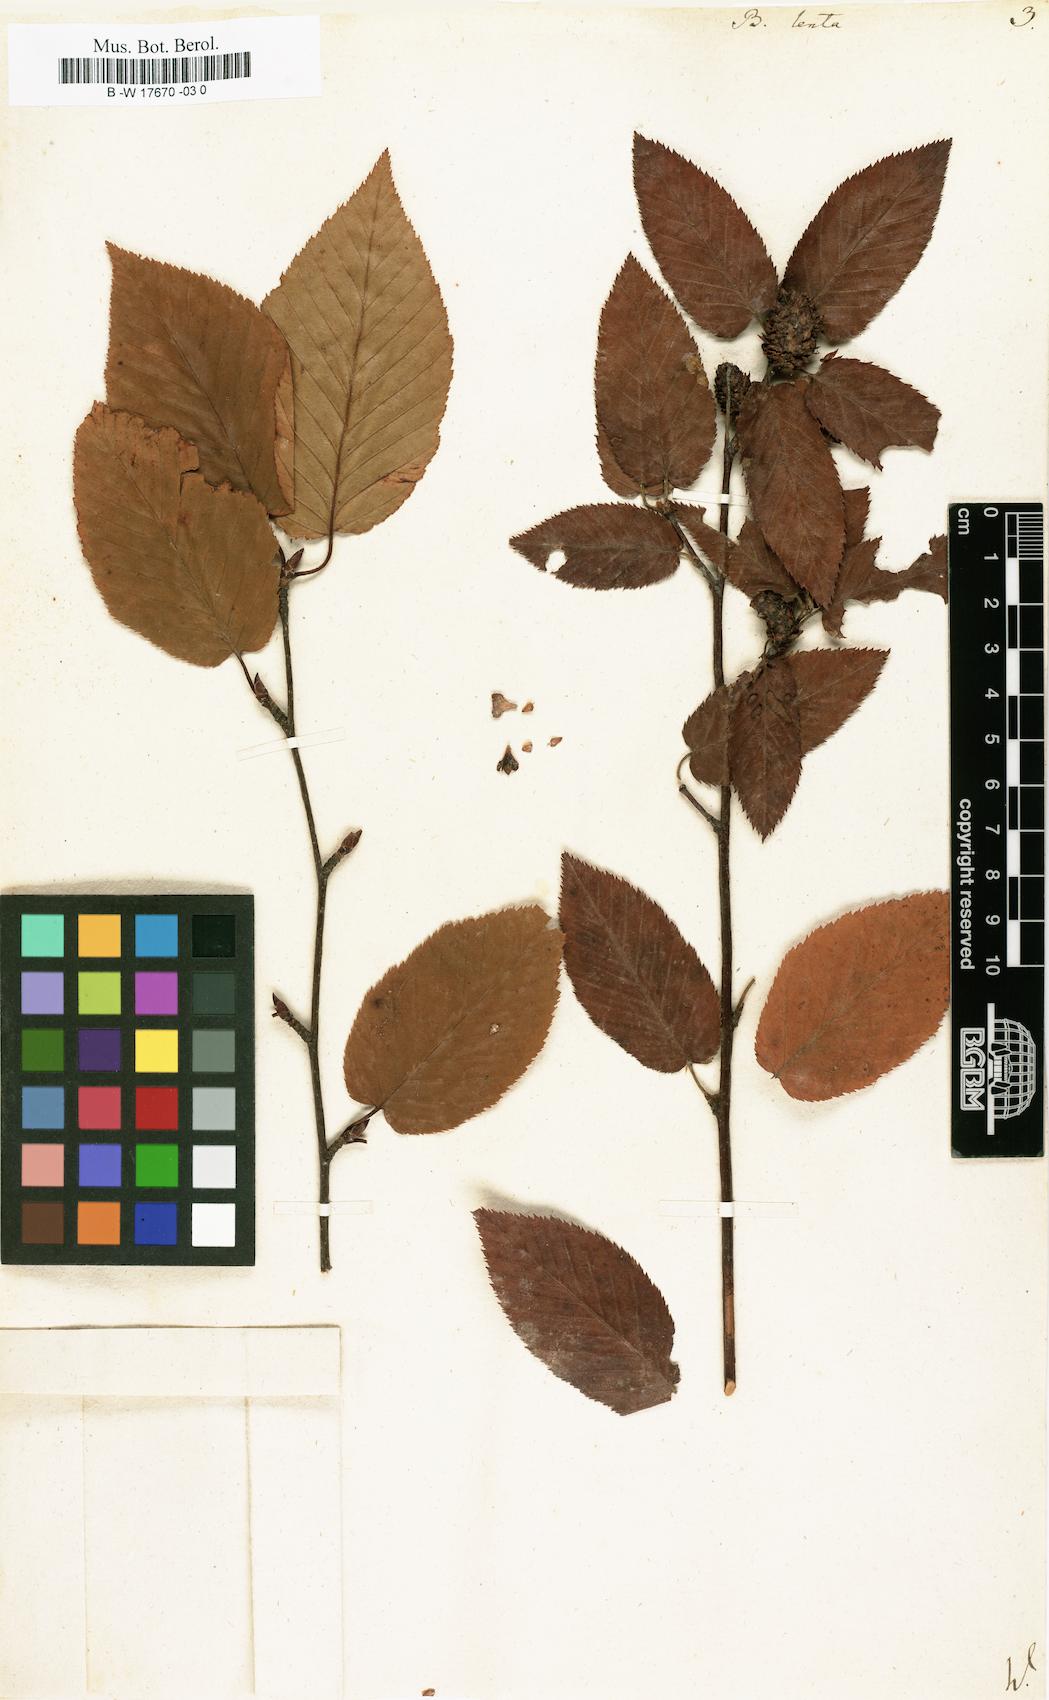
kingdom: Plantae
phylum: Tracheophyta
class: Magnoliopsida
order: Fagales
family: Betulaceae
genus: Betula
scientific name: Betula lenta
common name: Black birch
